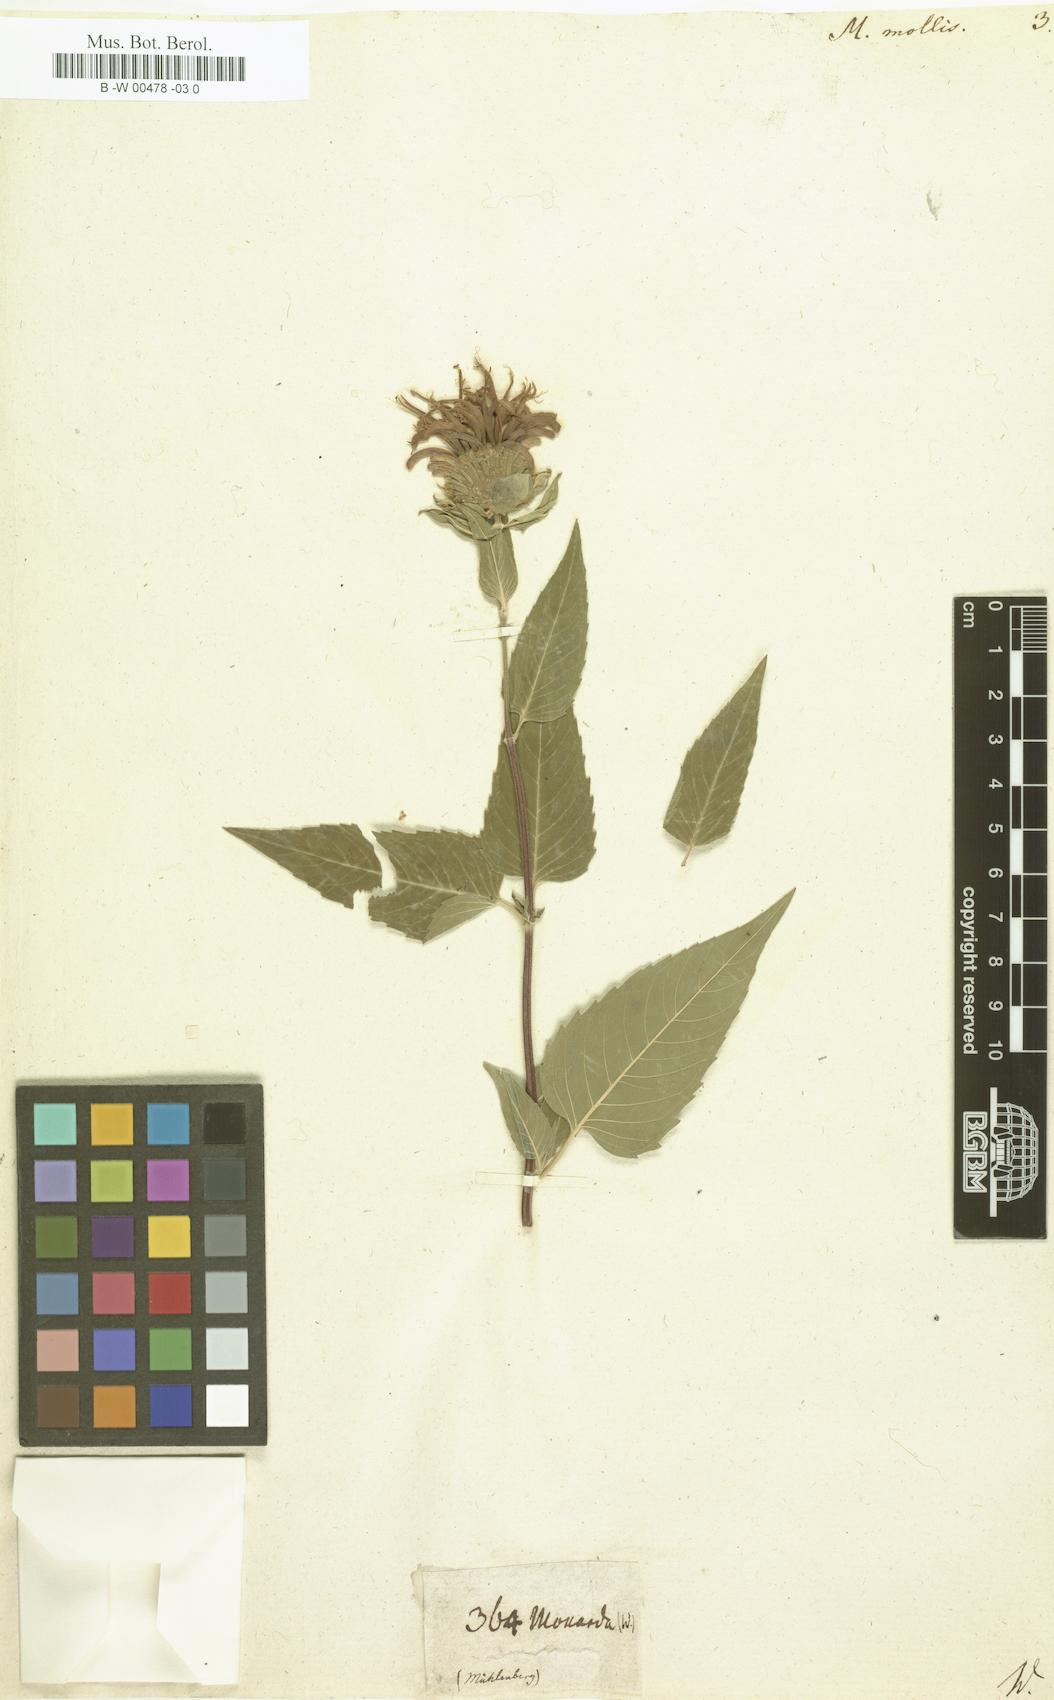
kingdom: Plantae
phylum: Tracheophyta
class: Magnoliopsida
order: Lamiales
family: Lamiaceae
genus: Monarda
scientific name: Monarda fistulosa
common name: Purple beebalm
